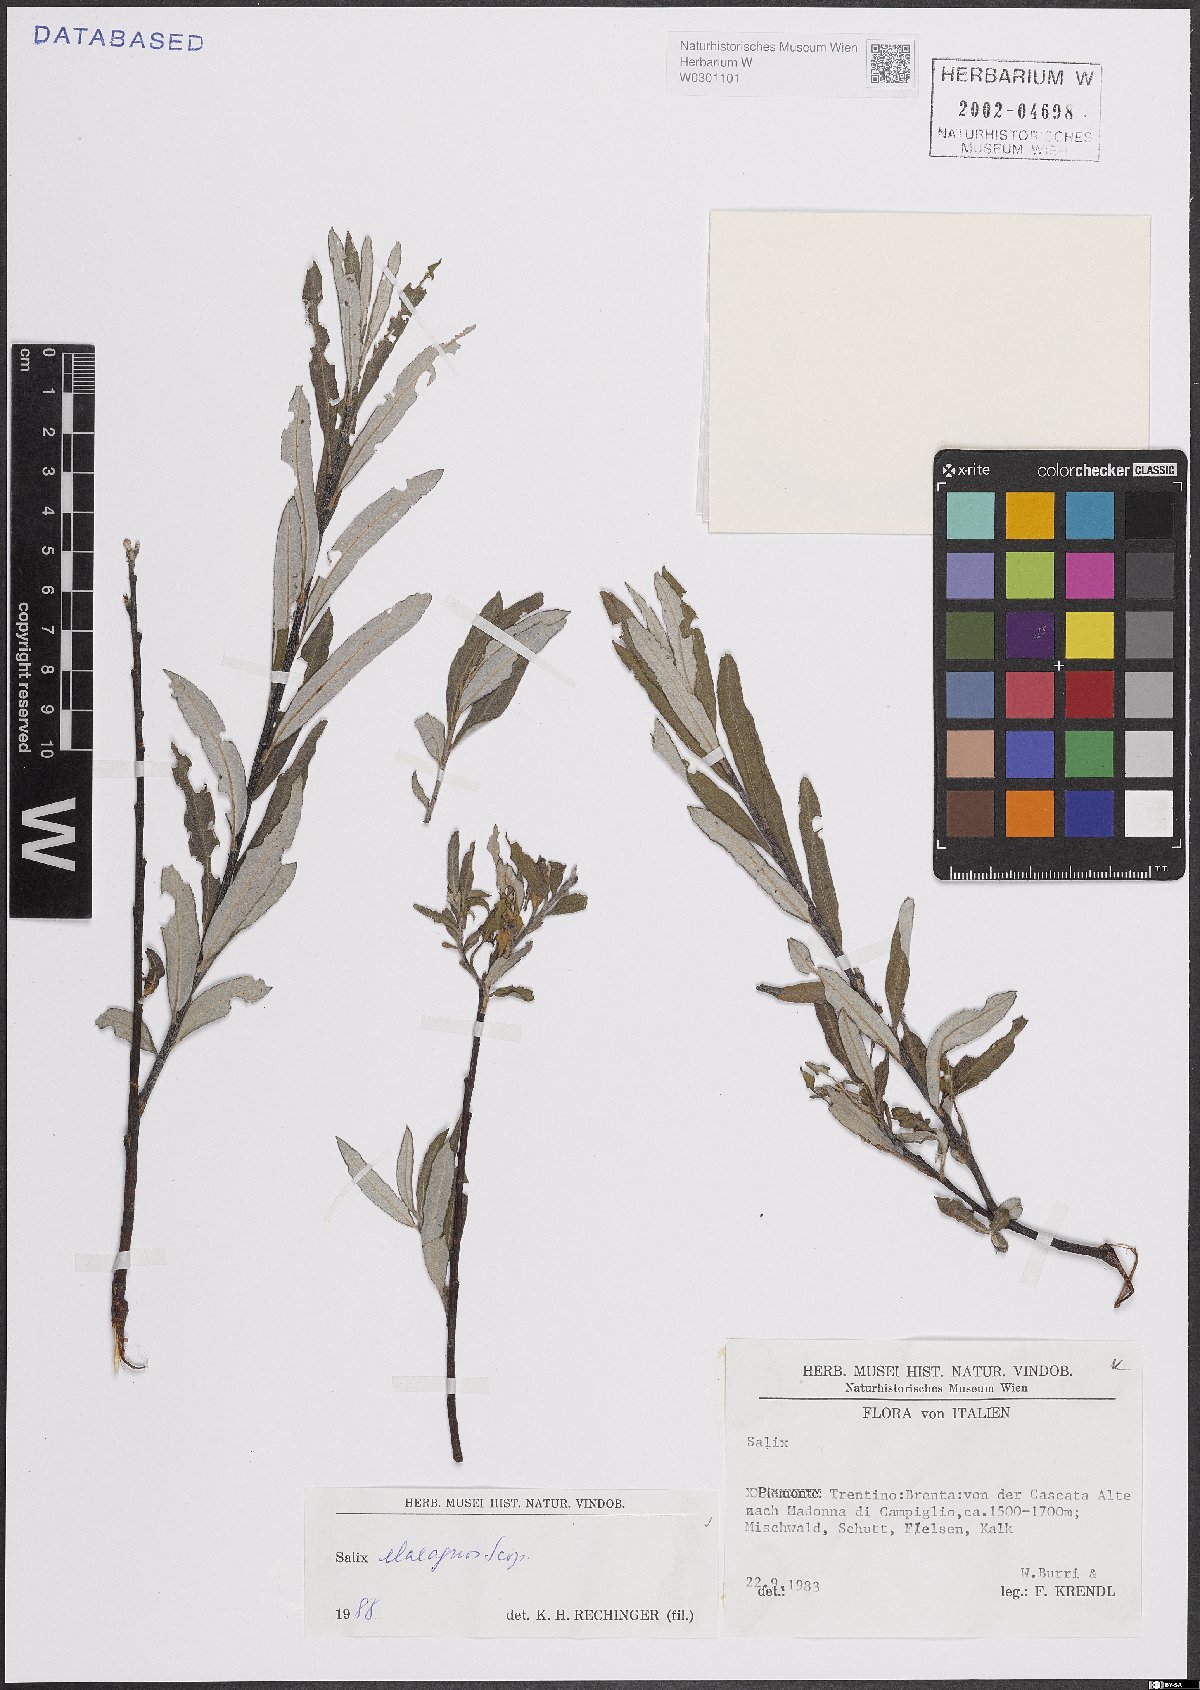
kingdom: Plantae
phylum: Tracheophyta
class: Magnoliopsida
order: Malpighiales
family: Salicaceae
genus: Salix
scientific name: Salix eleagnos
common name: Elaeagnus willow
